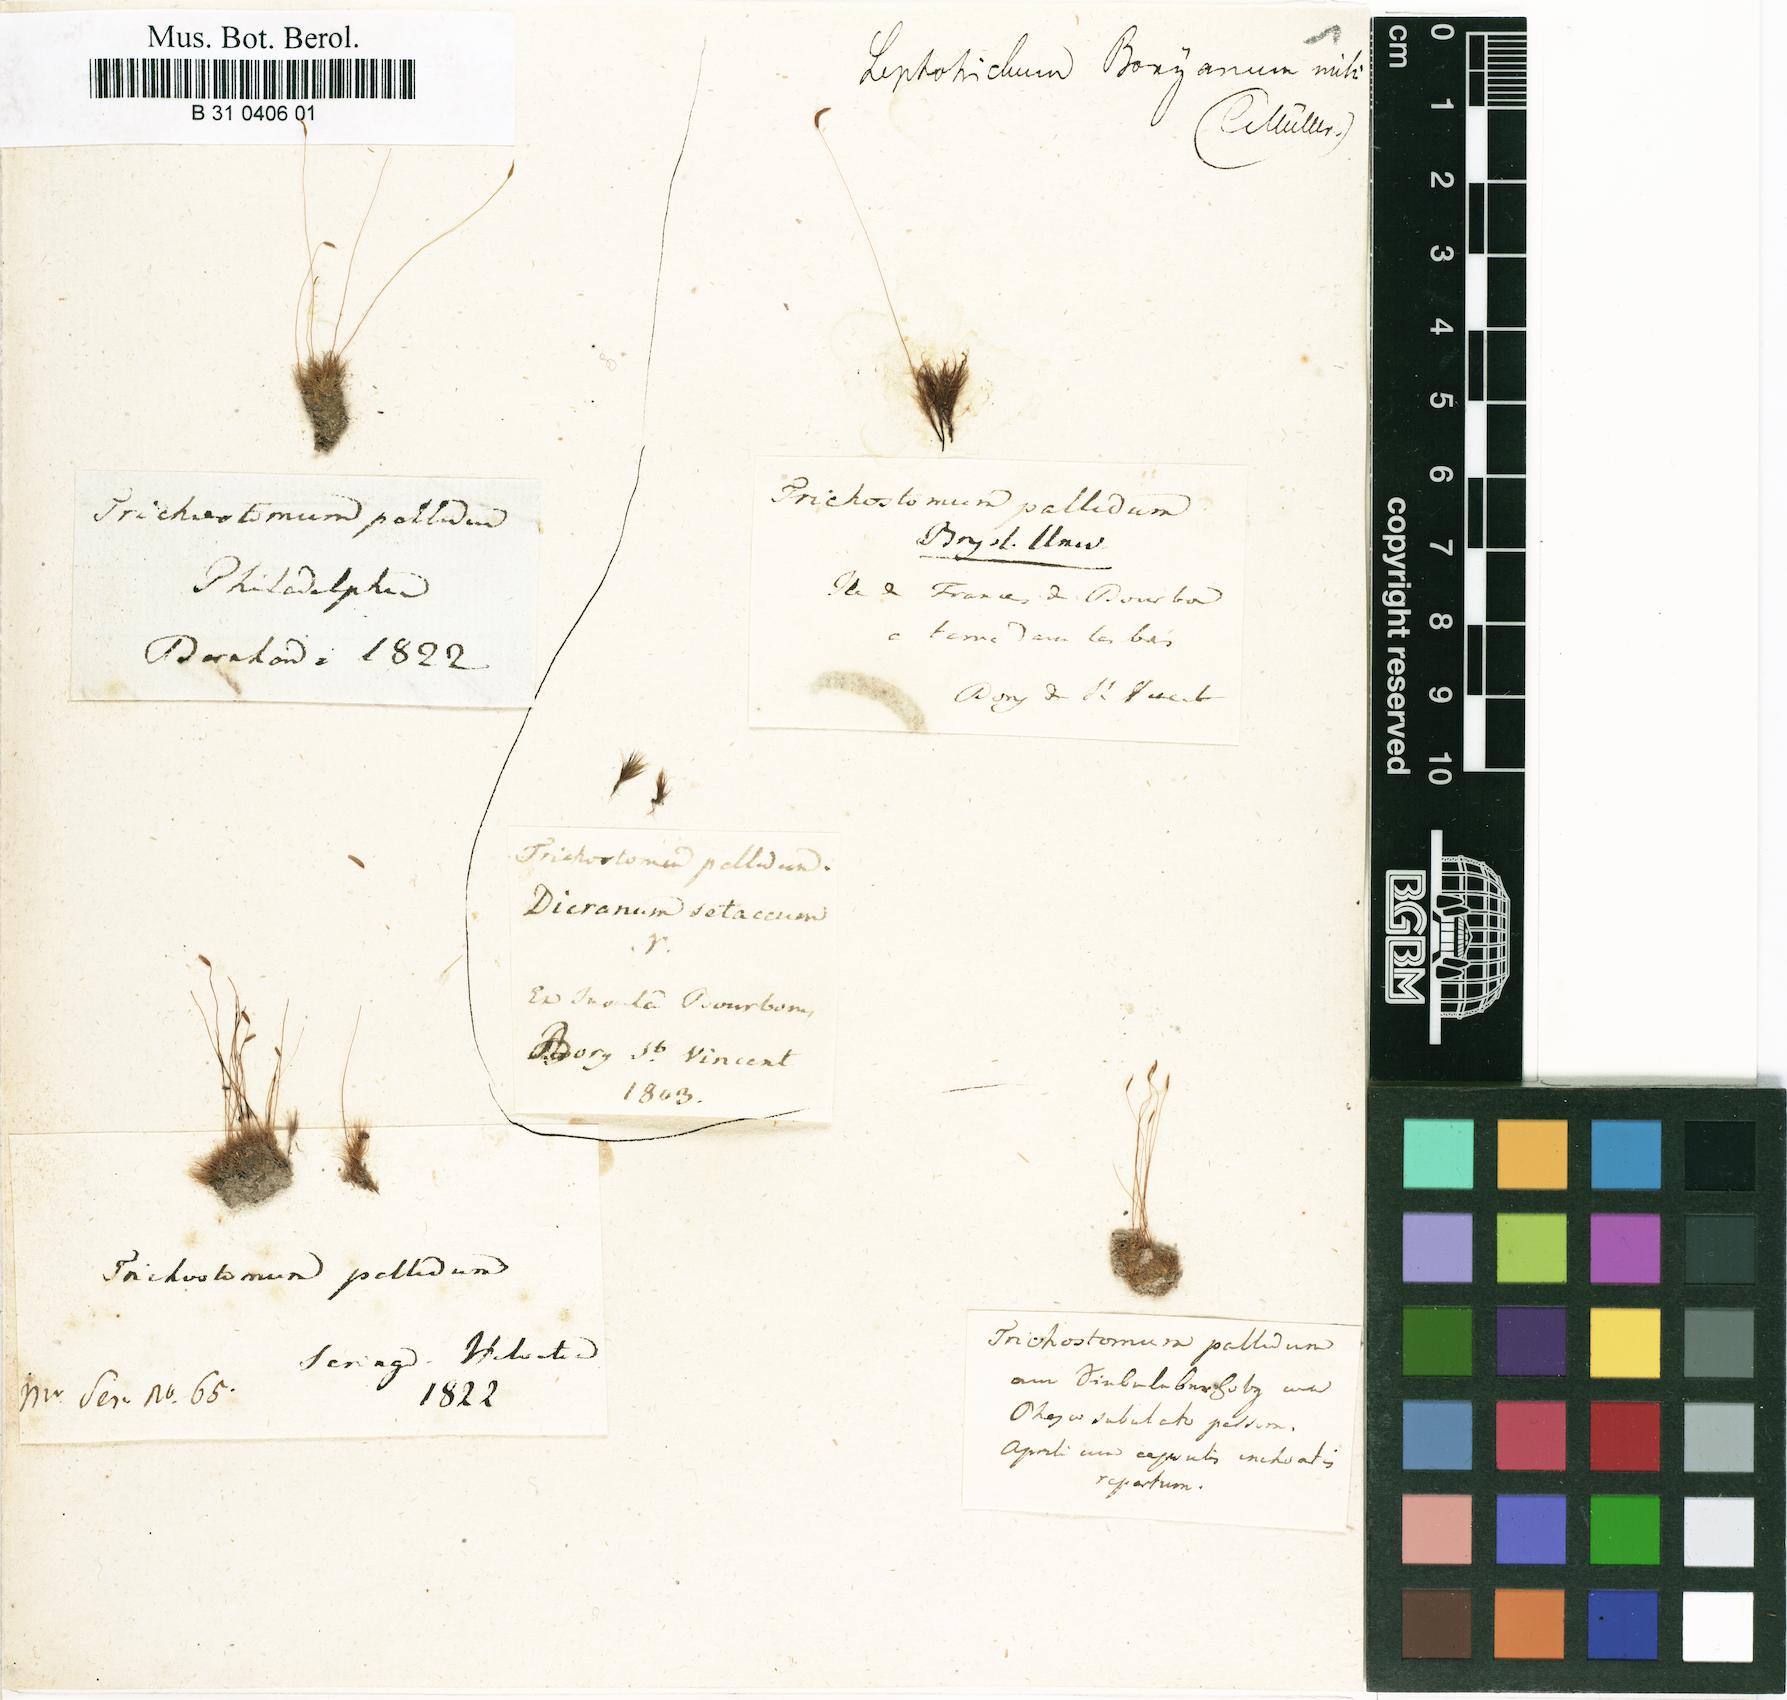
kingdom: Plantae
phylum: Bryophyta
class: Bryopsida
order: Dicranales
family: Ditrichaceae
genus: Ditrichum
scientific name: Ditrichum pallidum
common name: Pale cow-hair moss
